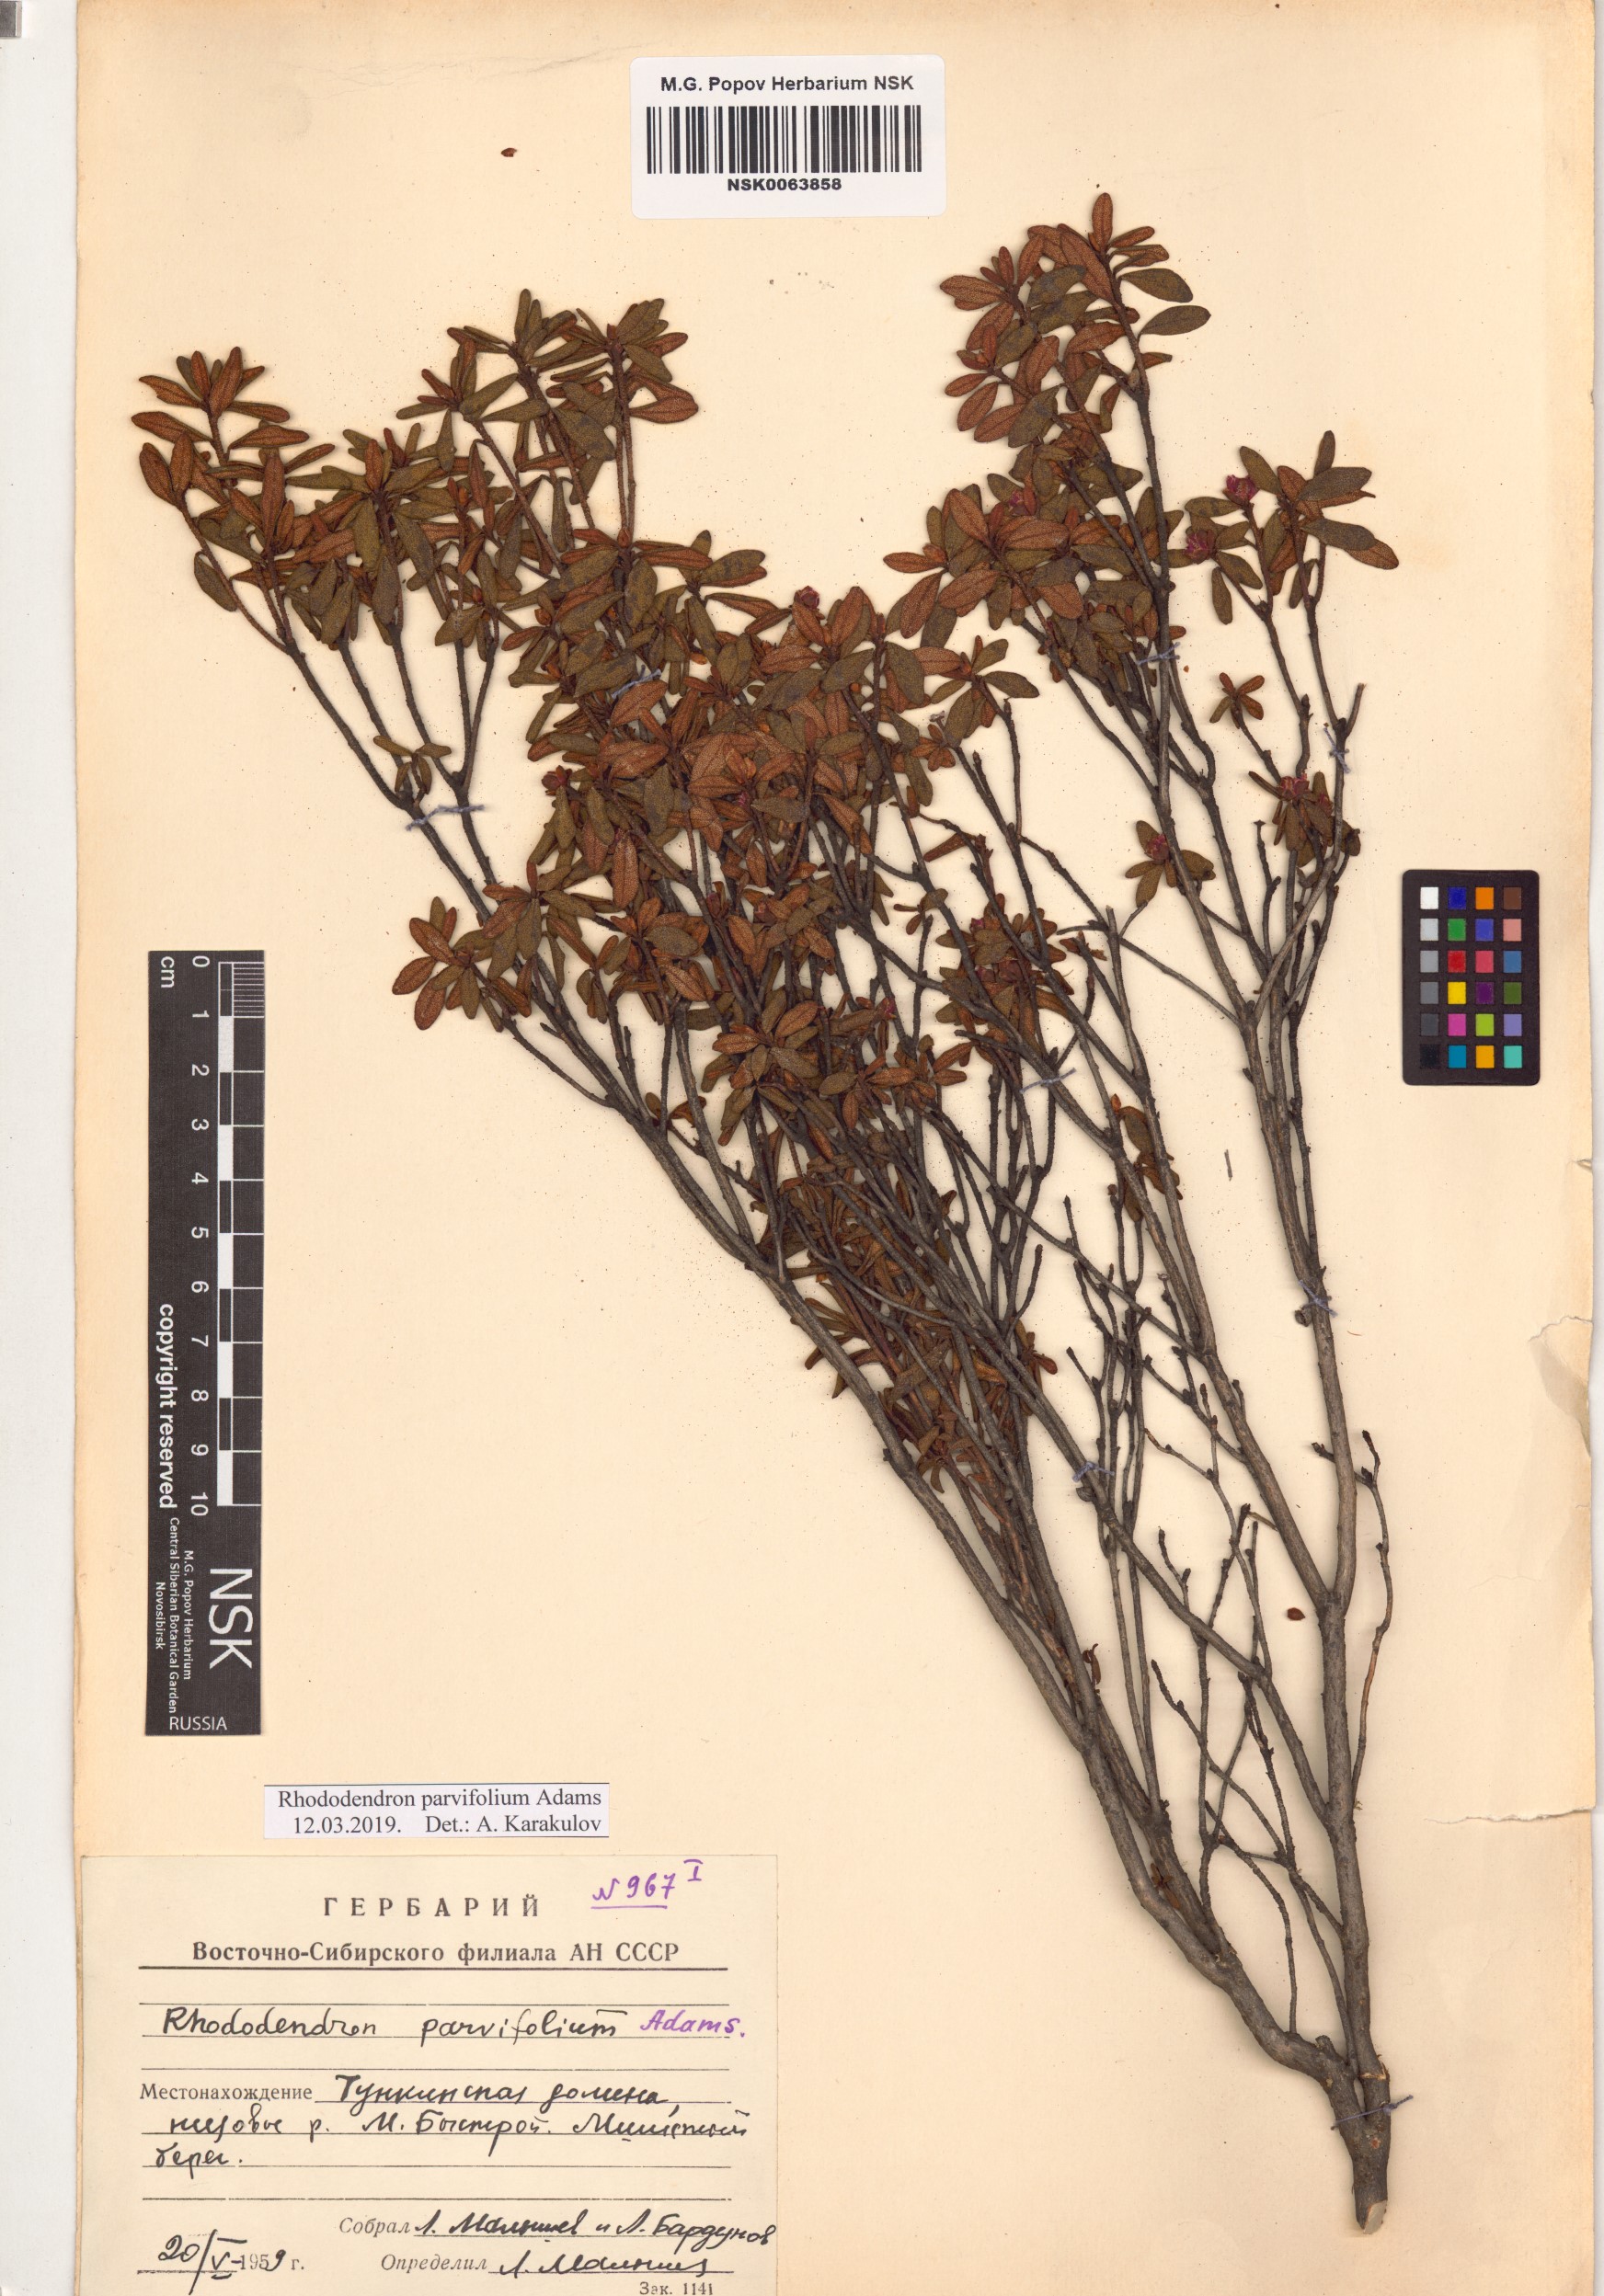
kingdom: Plantae
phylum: Tracheophyta
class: Magnoliopsida
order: Ericales
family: Ericaceae
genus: Rhododendron
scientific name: Rhododendron parvifolium
